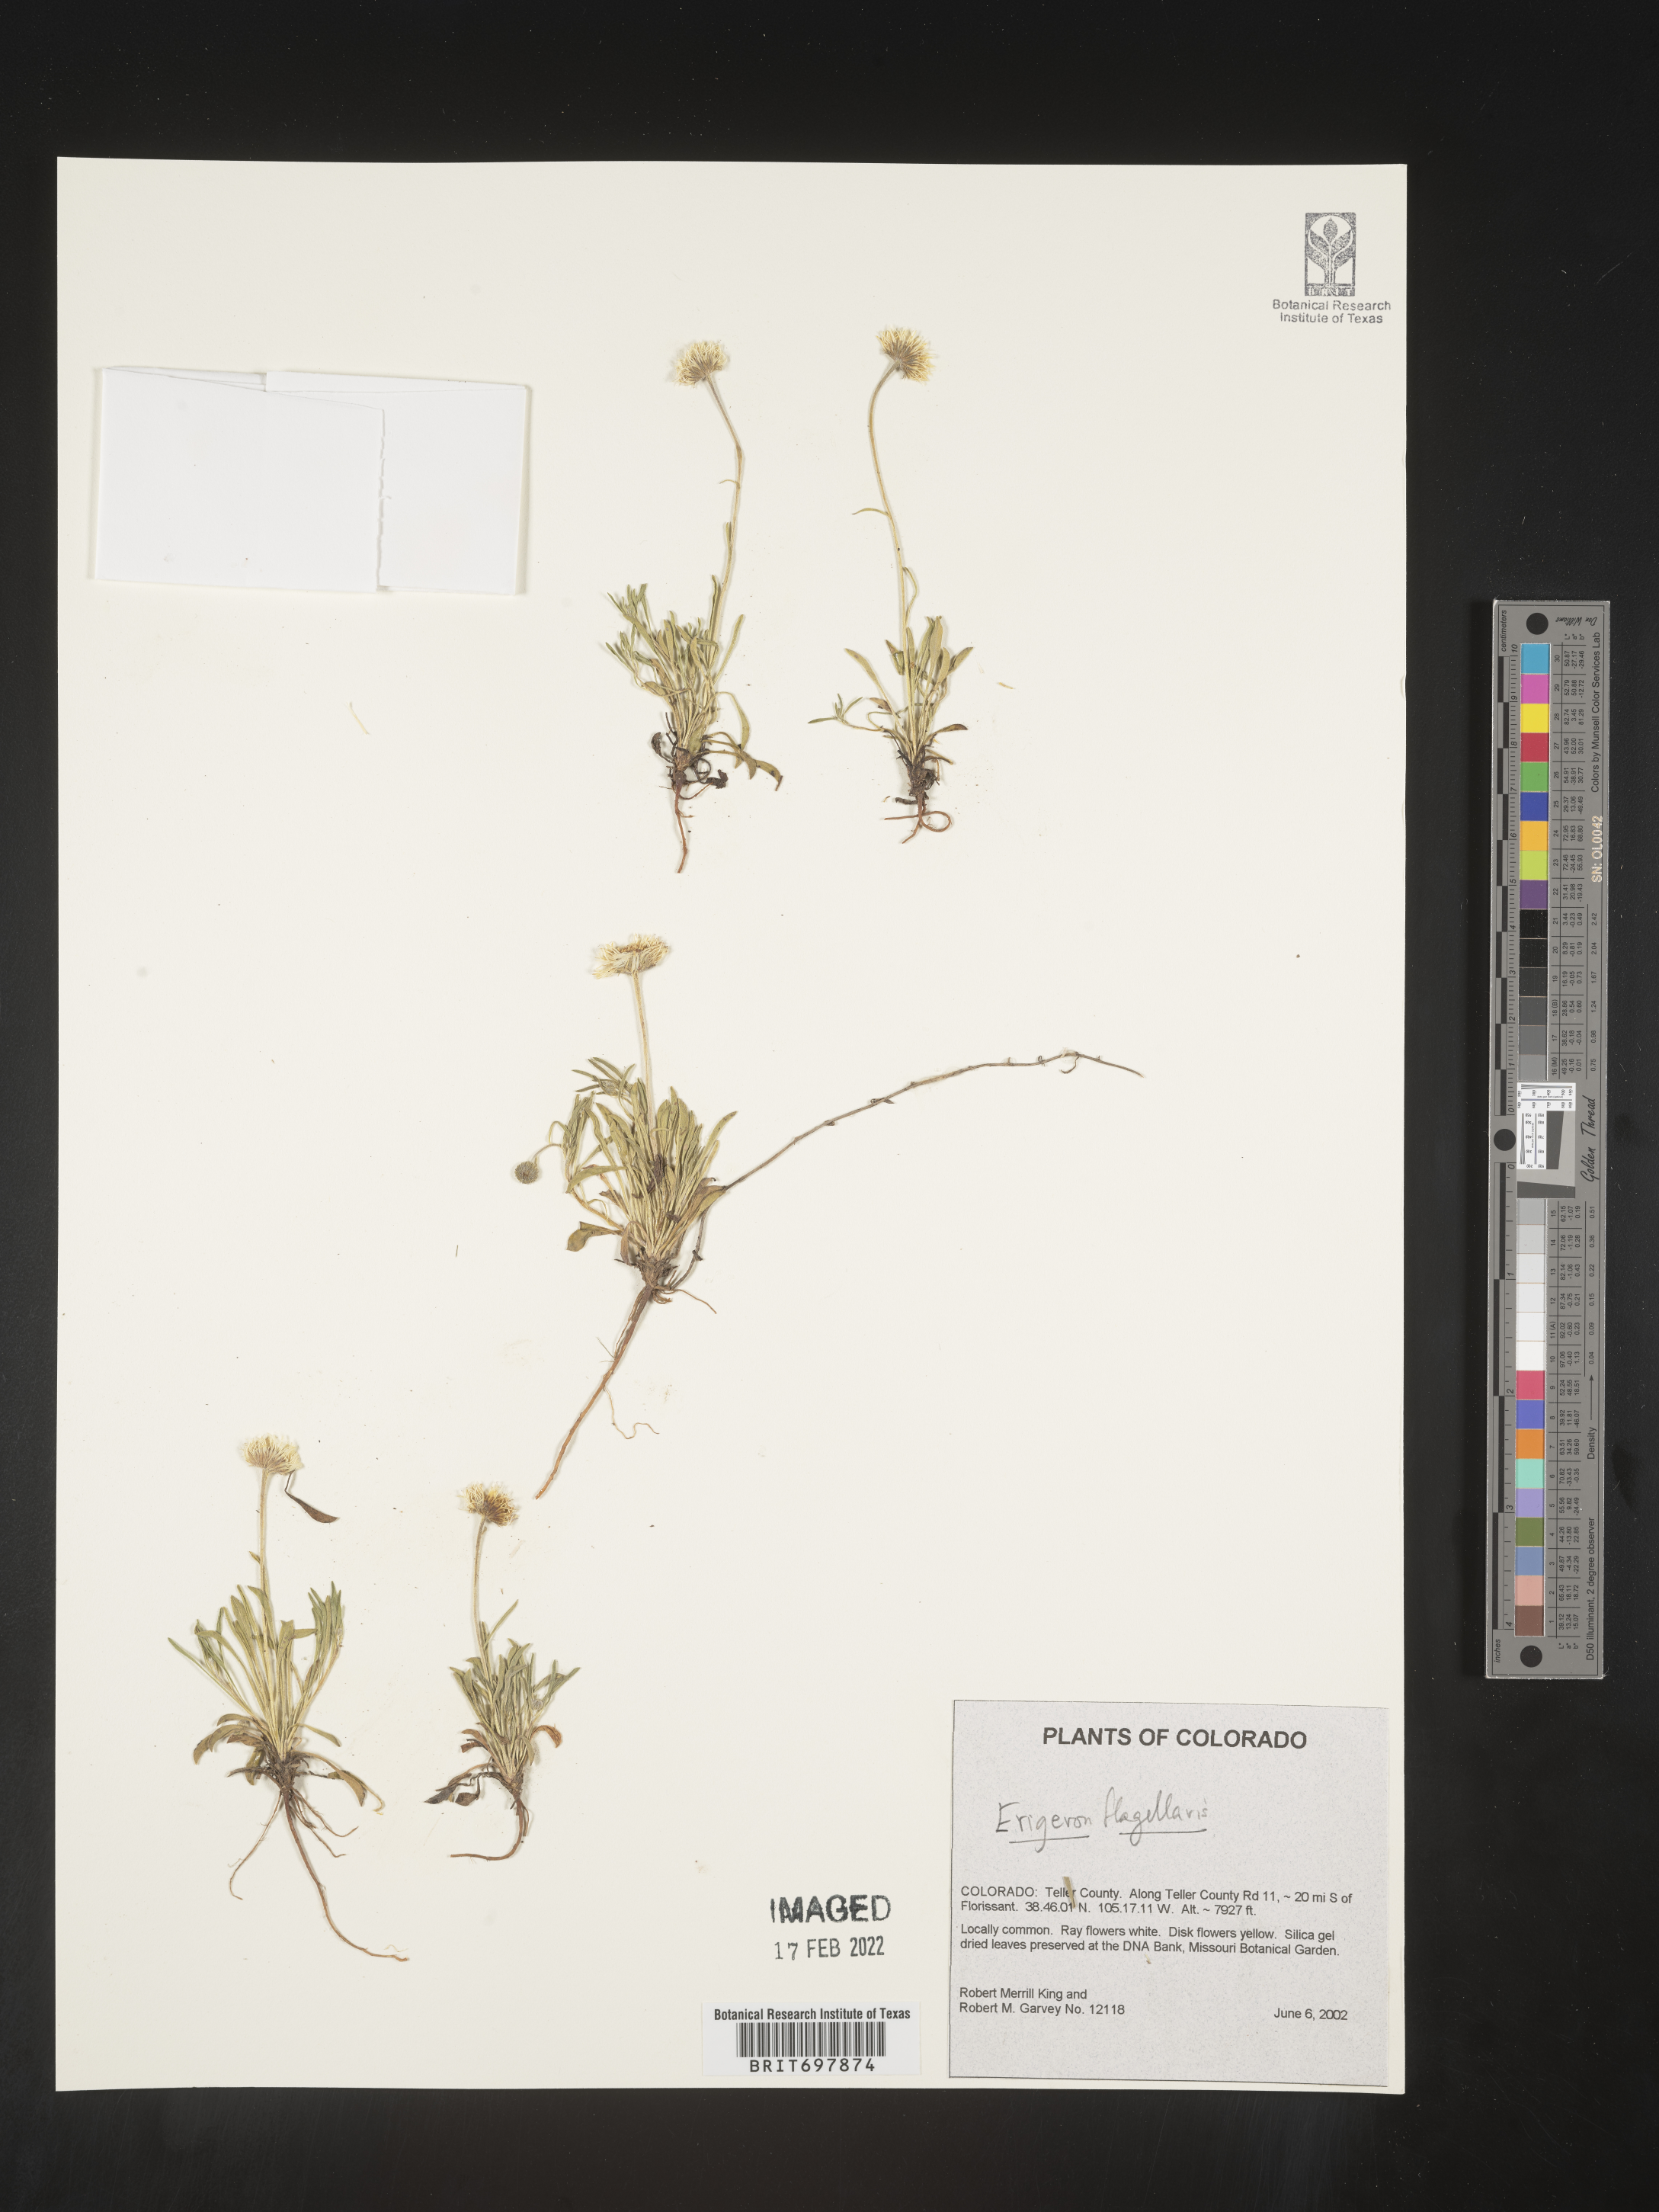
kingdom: Plantae
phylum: Tracheophyta
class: Magnoliopsida
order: Asterales
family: Asteraceae
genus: Erigeron
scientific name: Erigeron flagellaris
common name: Running fleabane
